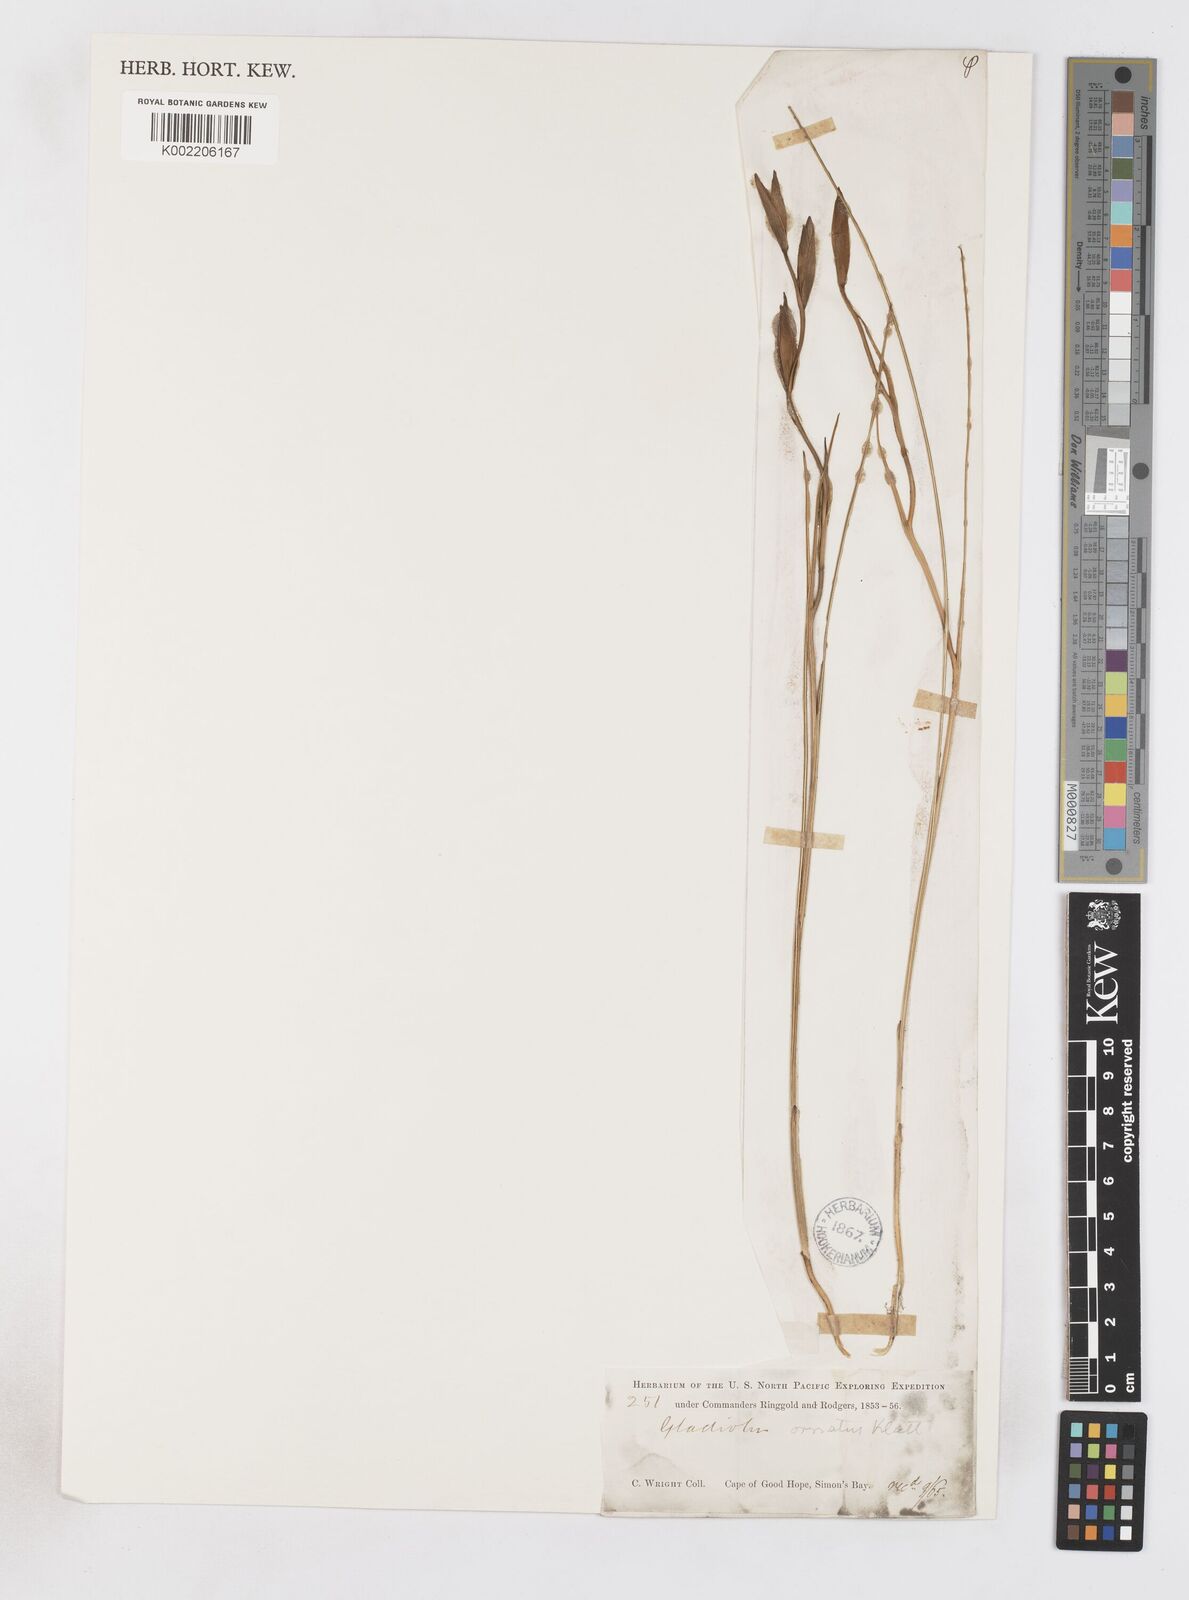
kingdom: Plantae
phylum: Tracheophyta
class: Liliopsida
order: Asparagales
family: Iridaceae
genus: Gladiolus
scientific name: Gladiolus ornatus
